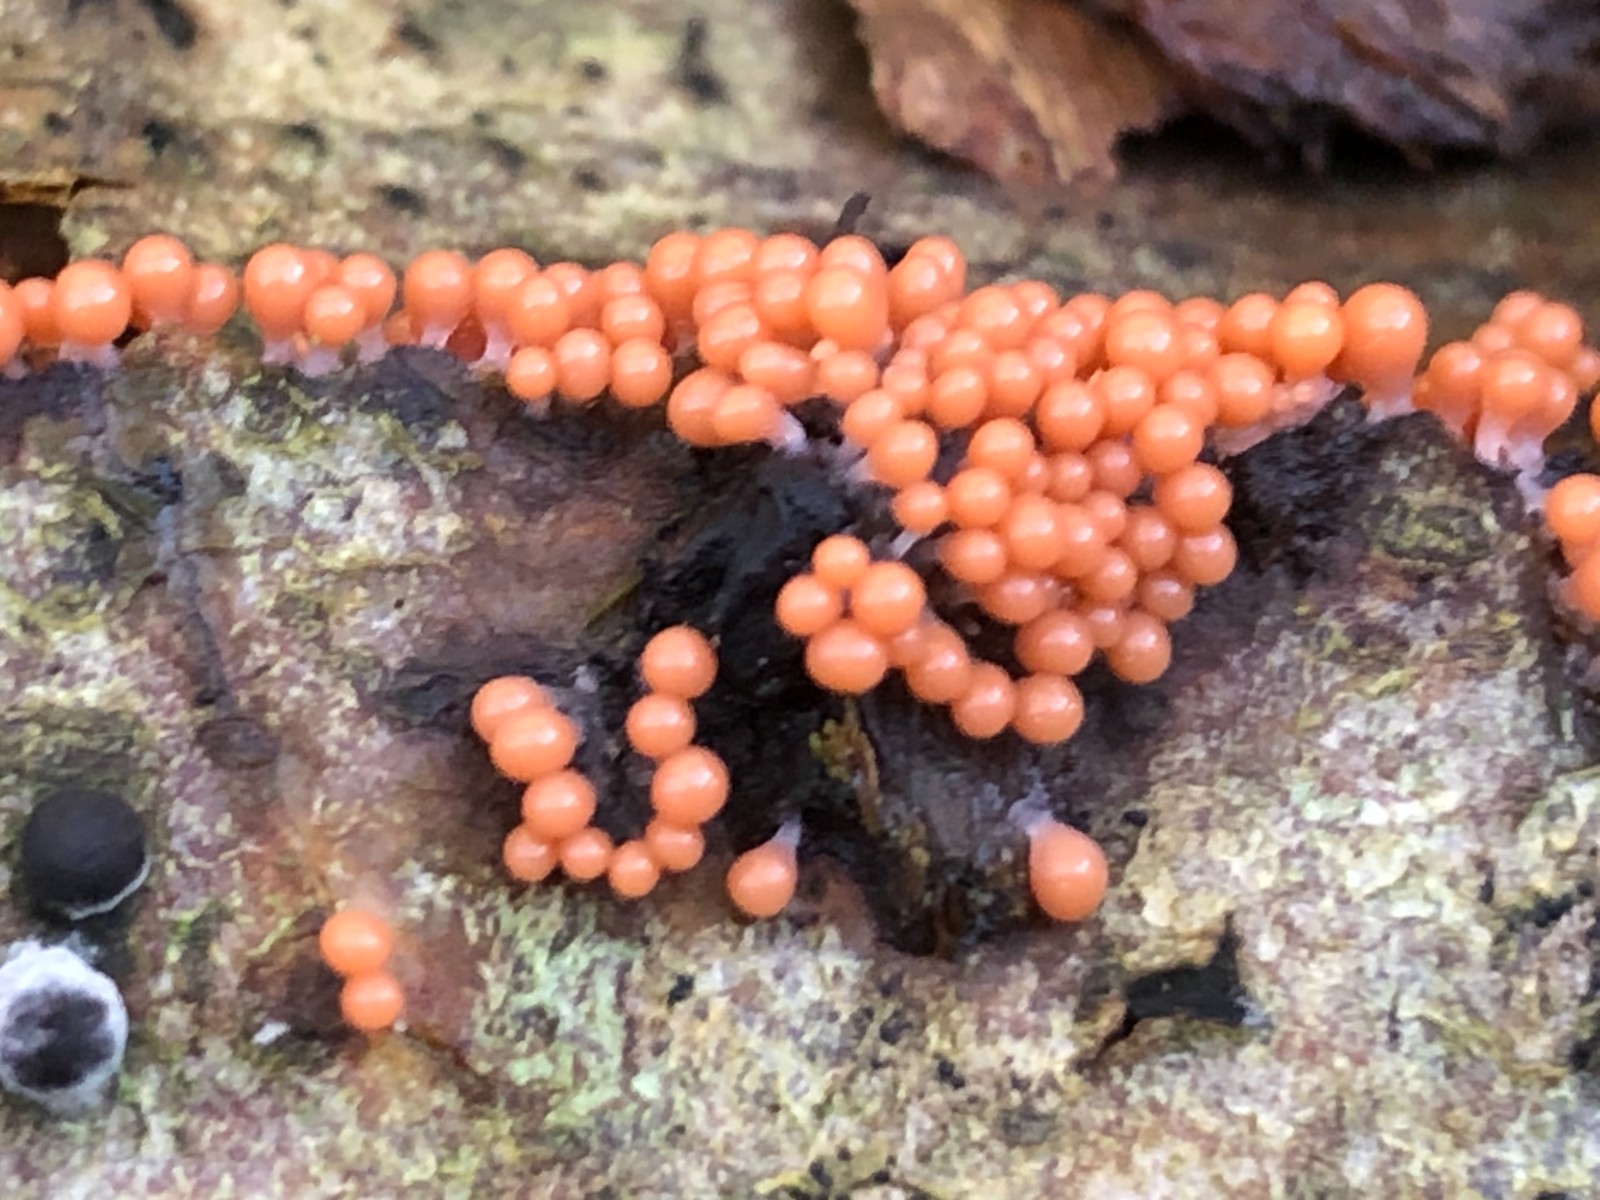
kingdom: Protozoa
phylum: Mycetozoa
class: Myxomycetes
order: Trichiales
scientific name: Trichiales
